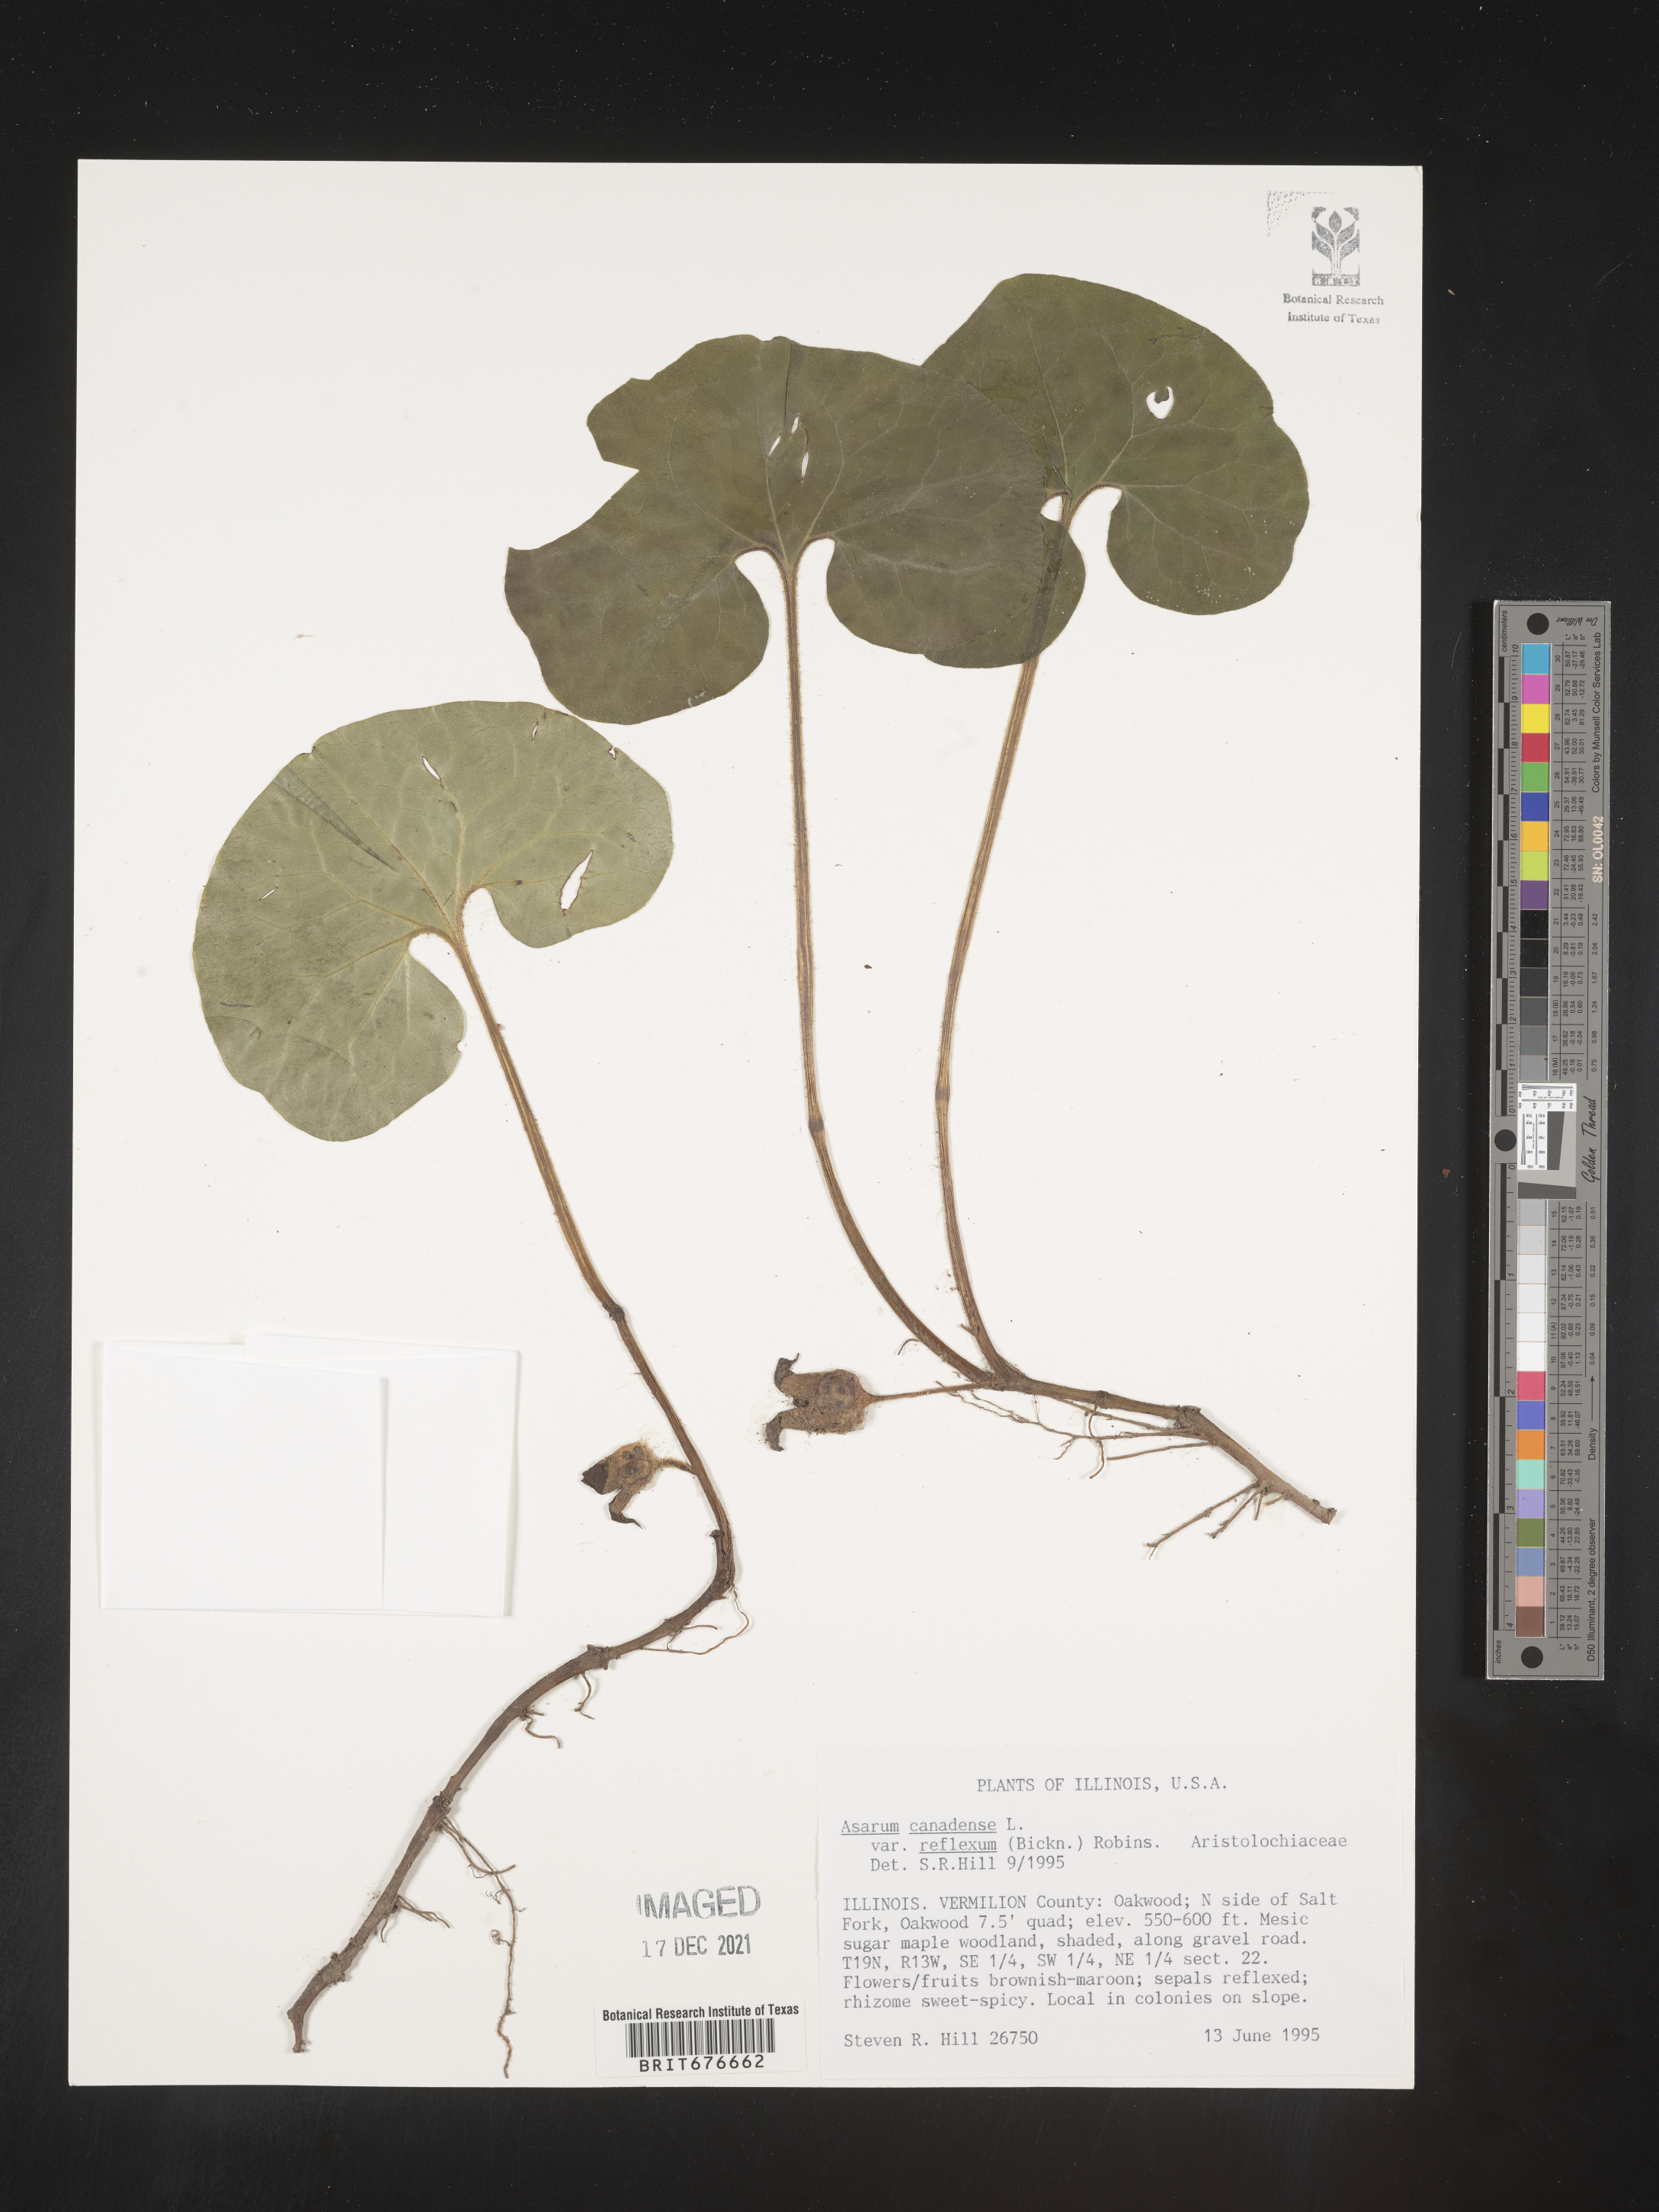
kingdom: Plantae
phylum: Tracheophyta
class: Magnoliopsida
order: Piperales
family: Aristolochiaceae
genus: Asarum
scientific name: Asarum canadense
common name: Wild ginger
